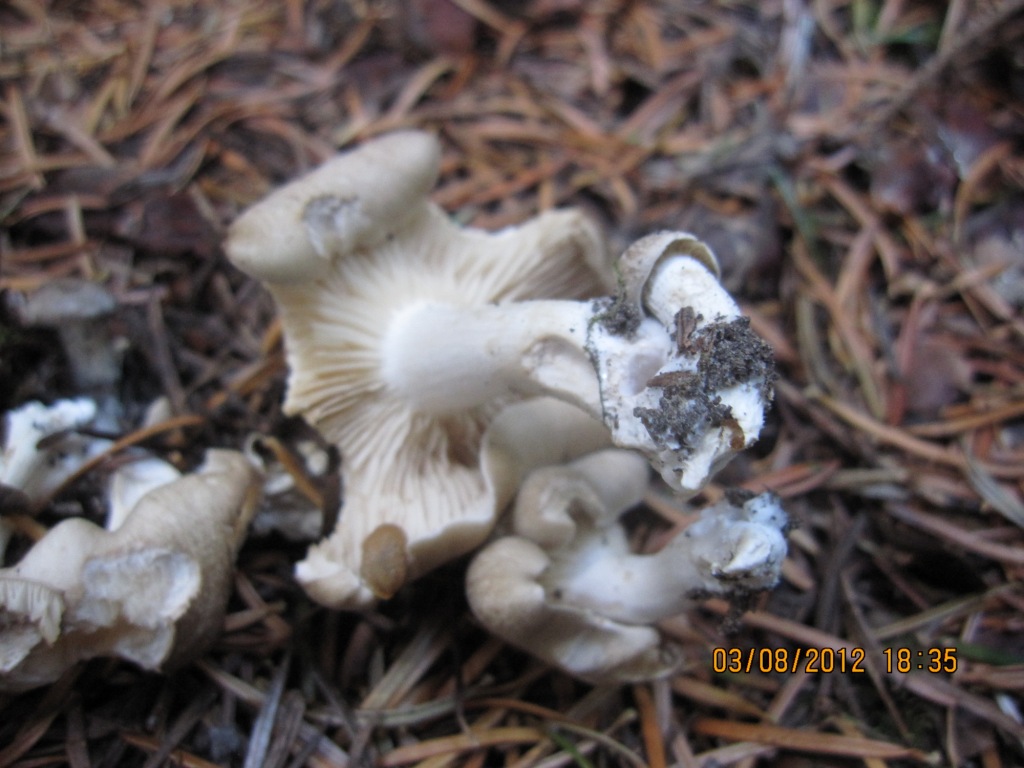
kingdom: Fungi
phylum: Basidiomycota
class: Agaricomycetes
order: Agaricales
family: Lyophyllaceae
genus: Lyophyllum
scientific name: Lyophyllum decastes
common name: Clustered domecap
